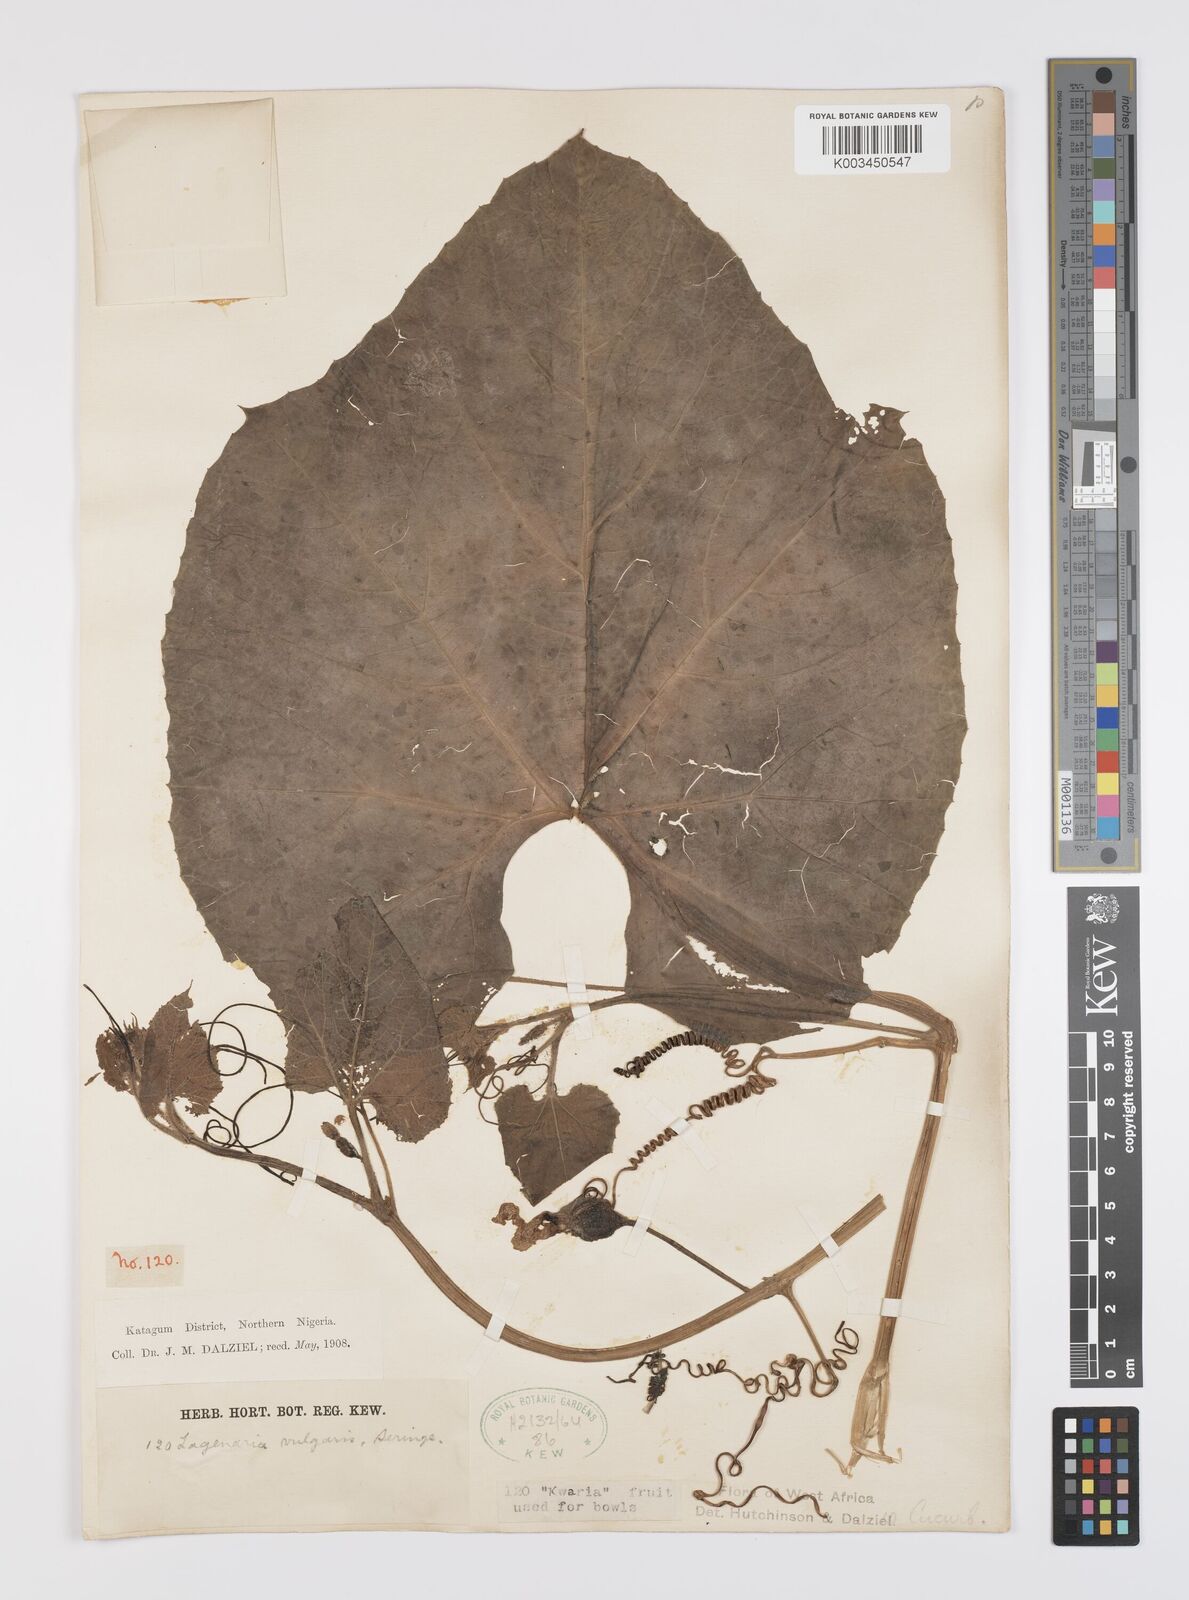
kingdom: Plantae
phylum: Tracheophyta
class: Magnoliopsida
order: Cucurbitales
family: Cucurbitaceae
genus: Lagenaria
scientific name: Lagenaria siceraria
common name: Bottle gourd
